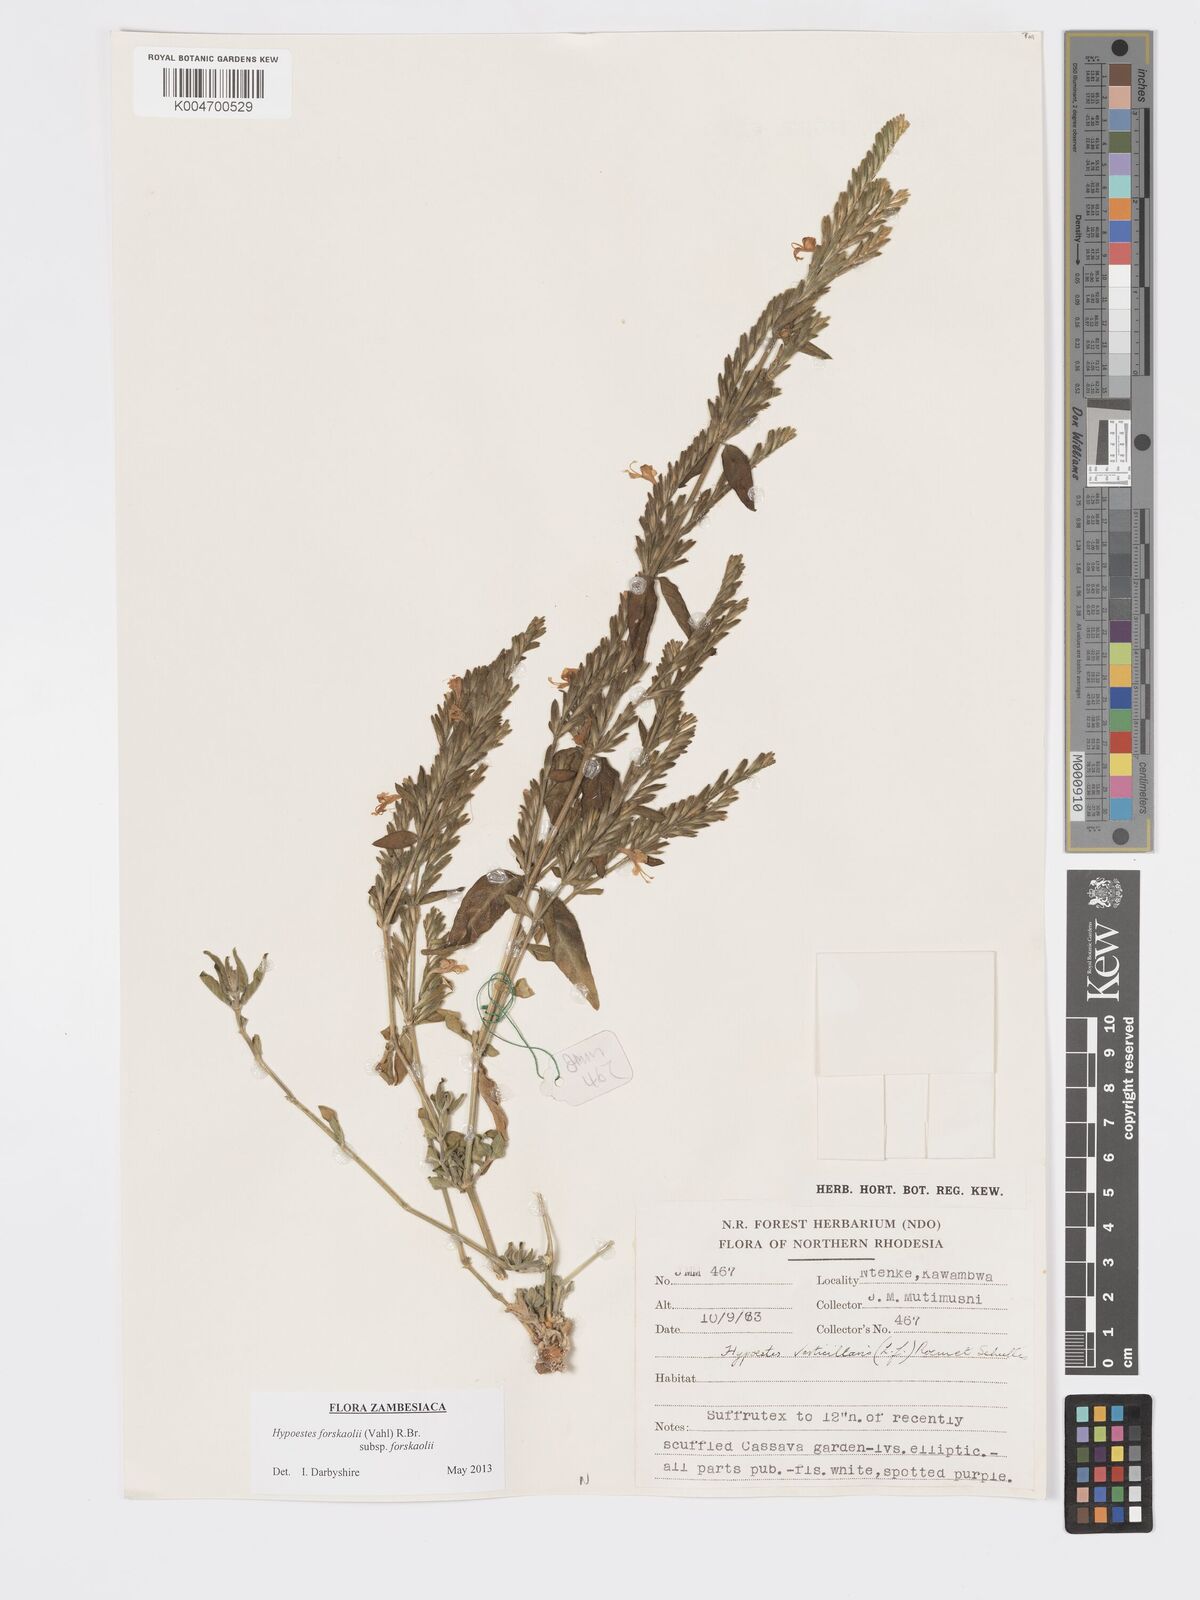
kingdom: Plantae
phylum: Tracheophyta
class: Magnoliopsida
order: Lamiales
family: Acanthaceae
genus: Hypoestes
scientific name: Hypoestes forskaolii
